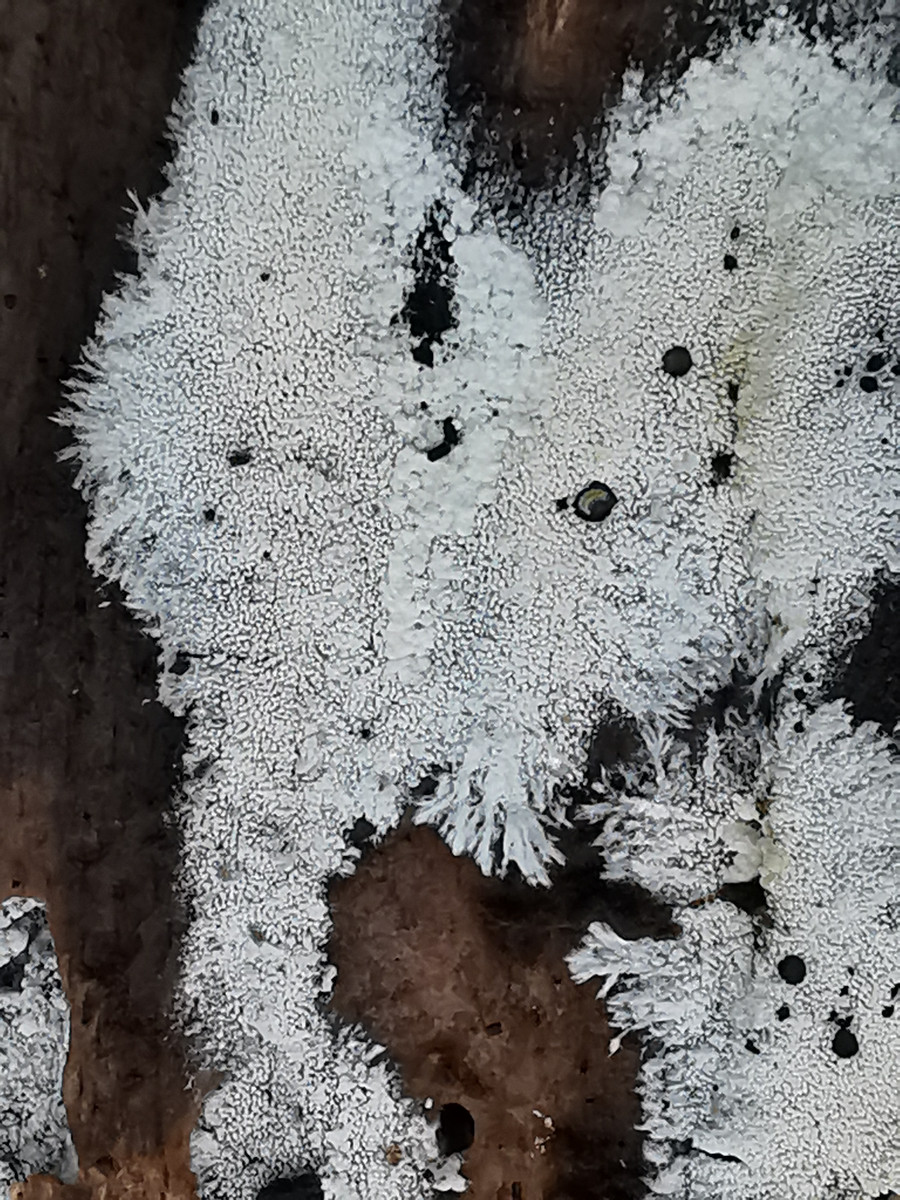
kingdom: Fungi
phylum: Basidiomycota
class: Agaricomycetes
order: Trechisporales
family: Sistotremataceae
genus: Trechispora
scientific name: Trechispora stevensonii
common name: støvende vathinde
